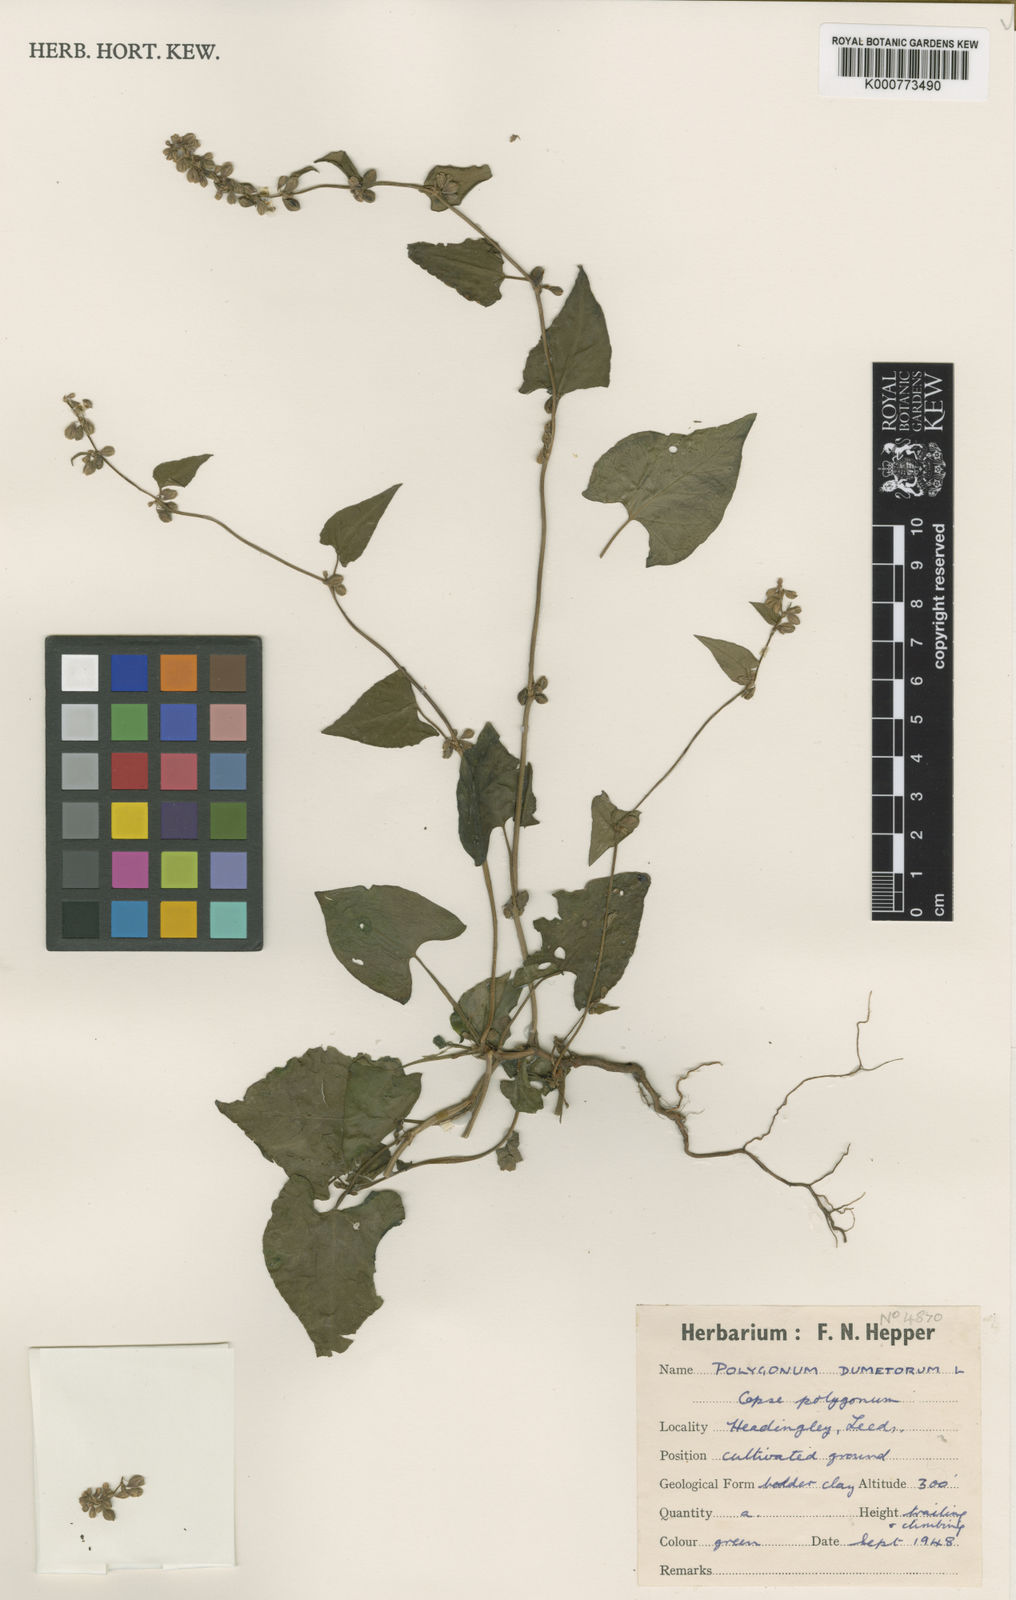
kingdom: Plantae
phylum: Tracheophyta
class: Magnoliopsida
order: Caryophyllales
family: Polygonaceae
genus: Fallopia
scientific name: Fallopia dumetorum
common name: Copse-bindweed
